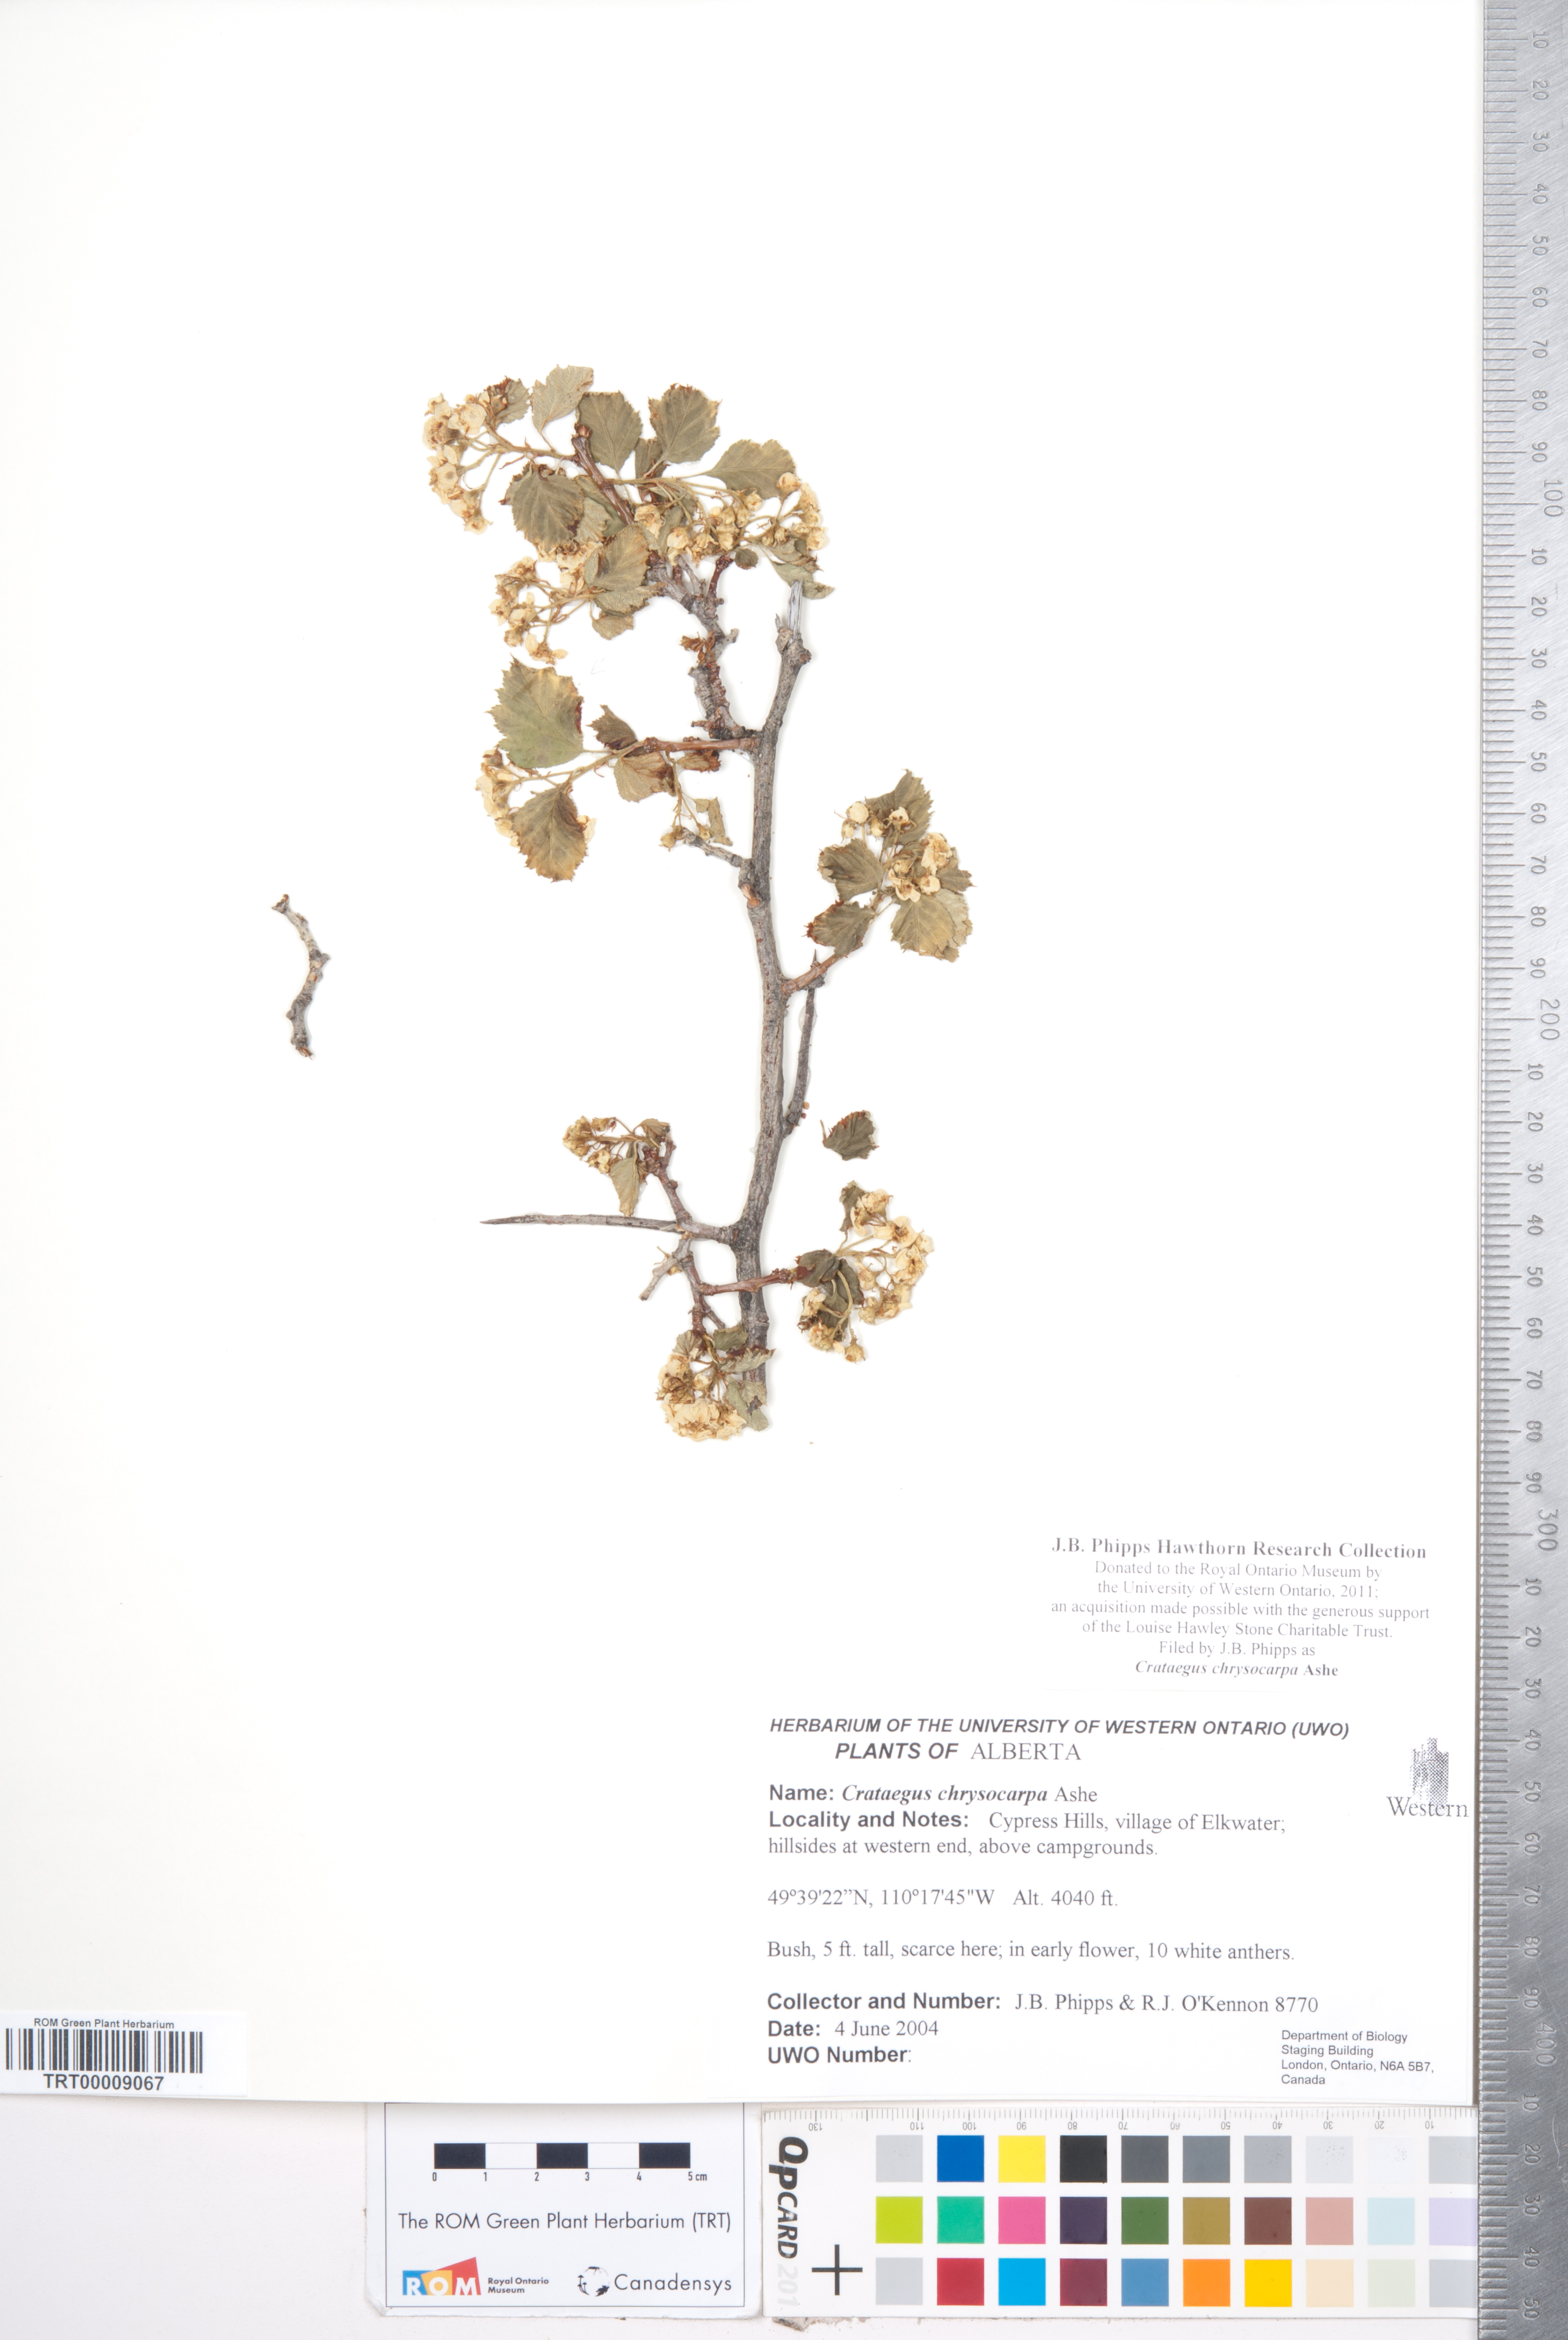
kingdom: Plantae
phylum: Tracheophyta
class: Magnoliopsida
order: Rosales
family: Rosaceae
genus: Crataegus
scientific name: Crataegus chrysocarpa
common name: Fire-berry hawthorn
